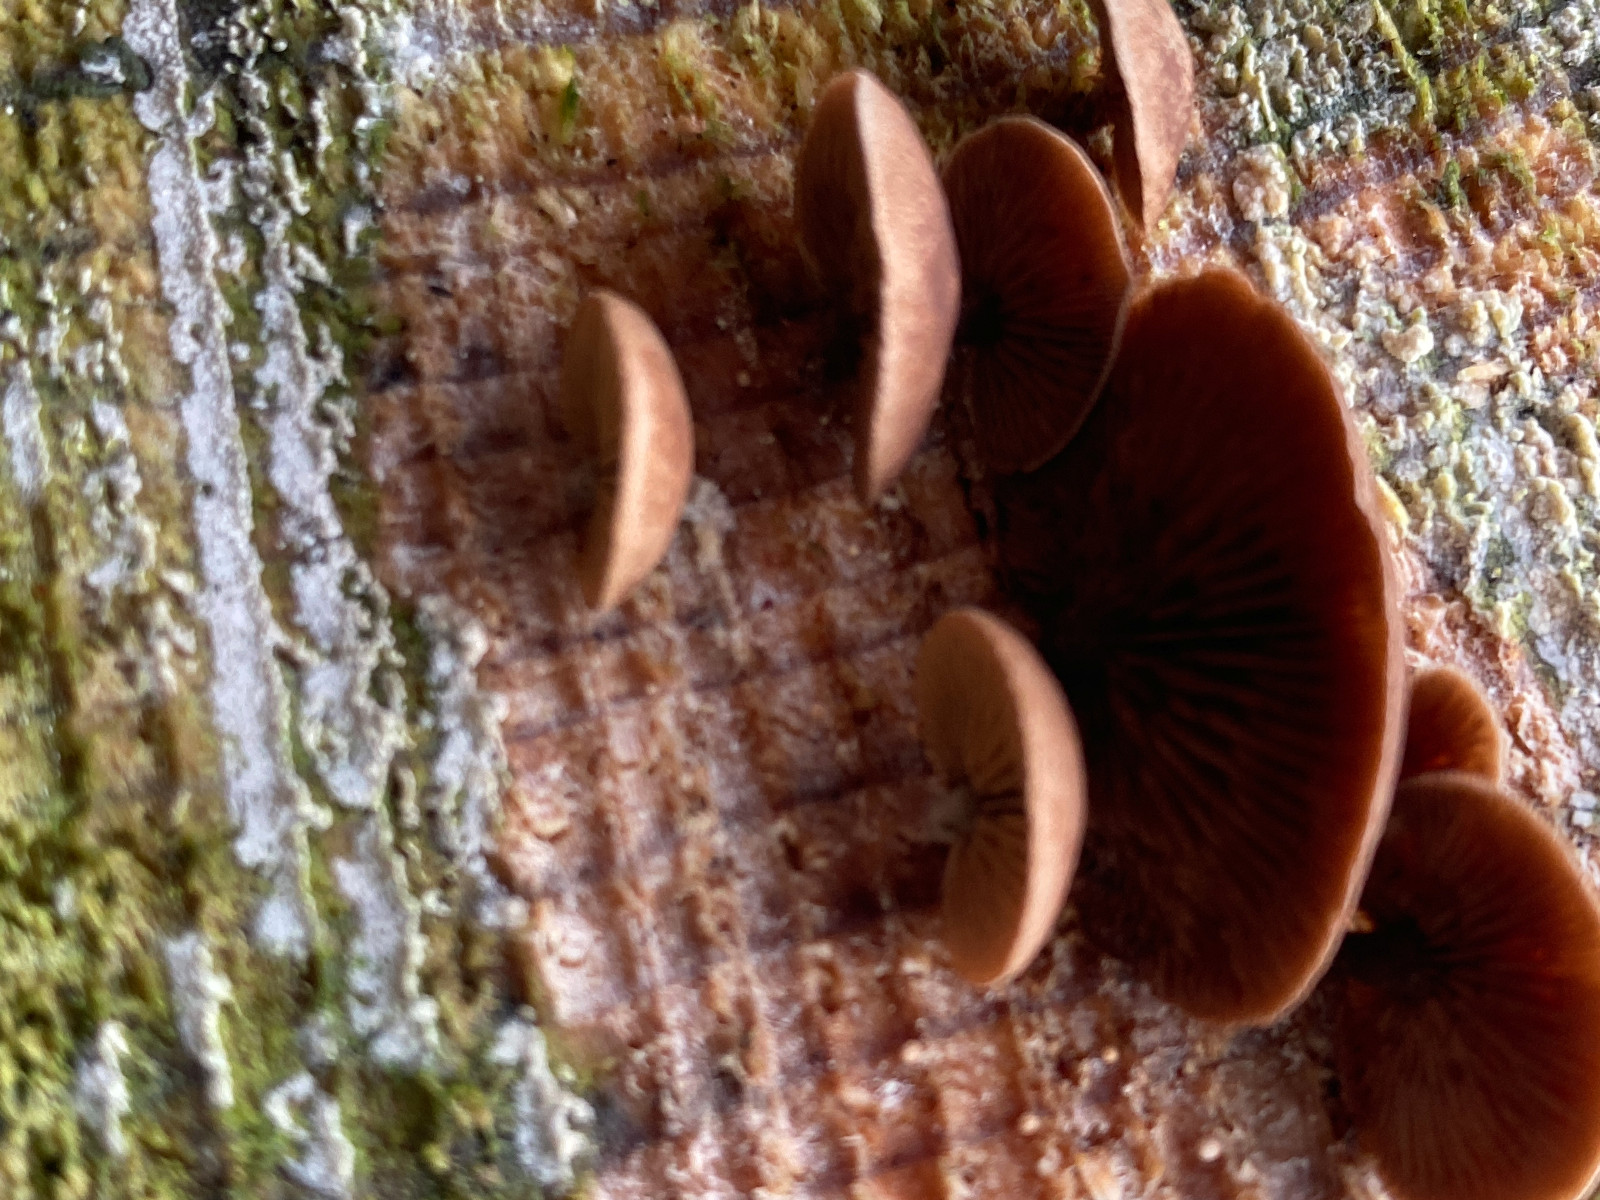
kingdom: Fungi
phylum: Basidiomycota
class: Agaricomycetes
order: Agaricales
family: Strophariaceae
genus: Deconica
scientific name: Deconica horizontalis
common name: ved-stråhat
